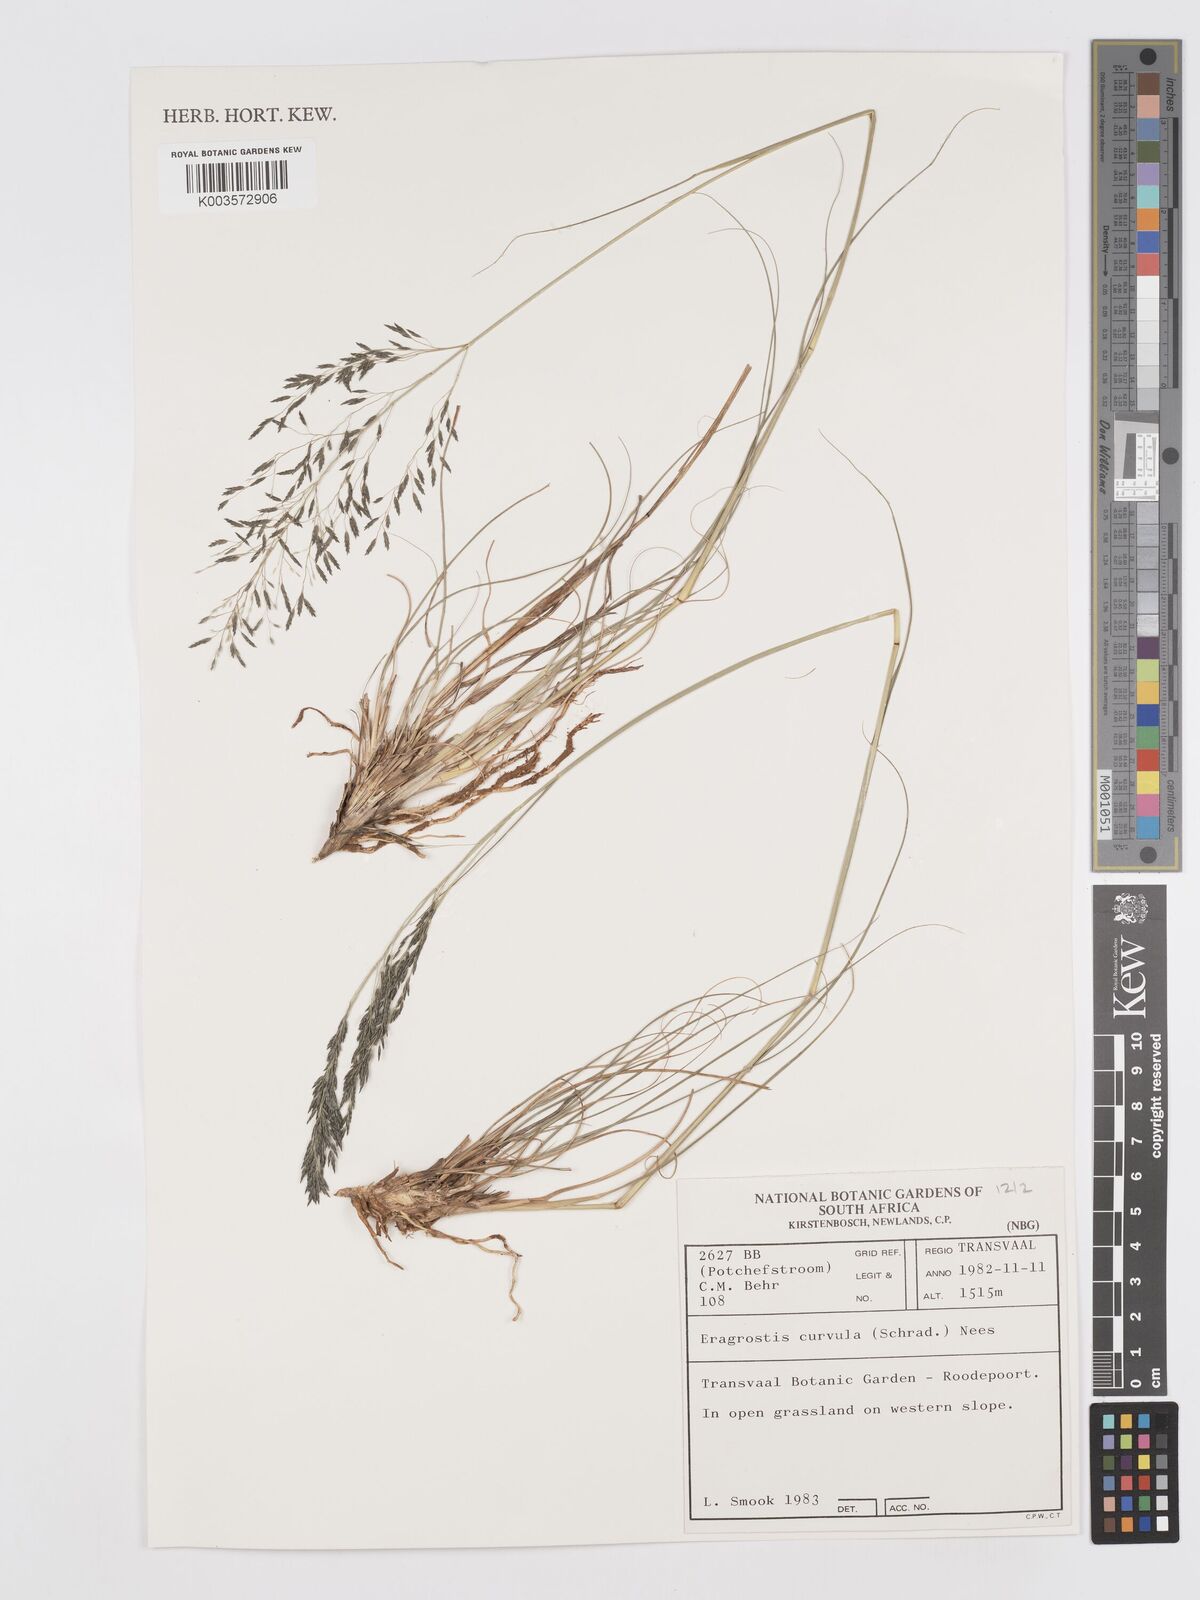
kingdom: Plantae
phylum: Tracheophyta
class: Liliopsida
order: Poales
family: Poaceae
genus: Eragrostis
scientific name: Eragrostis curvula
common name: African love-grass
